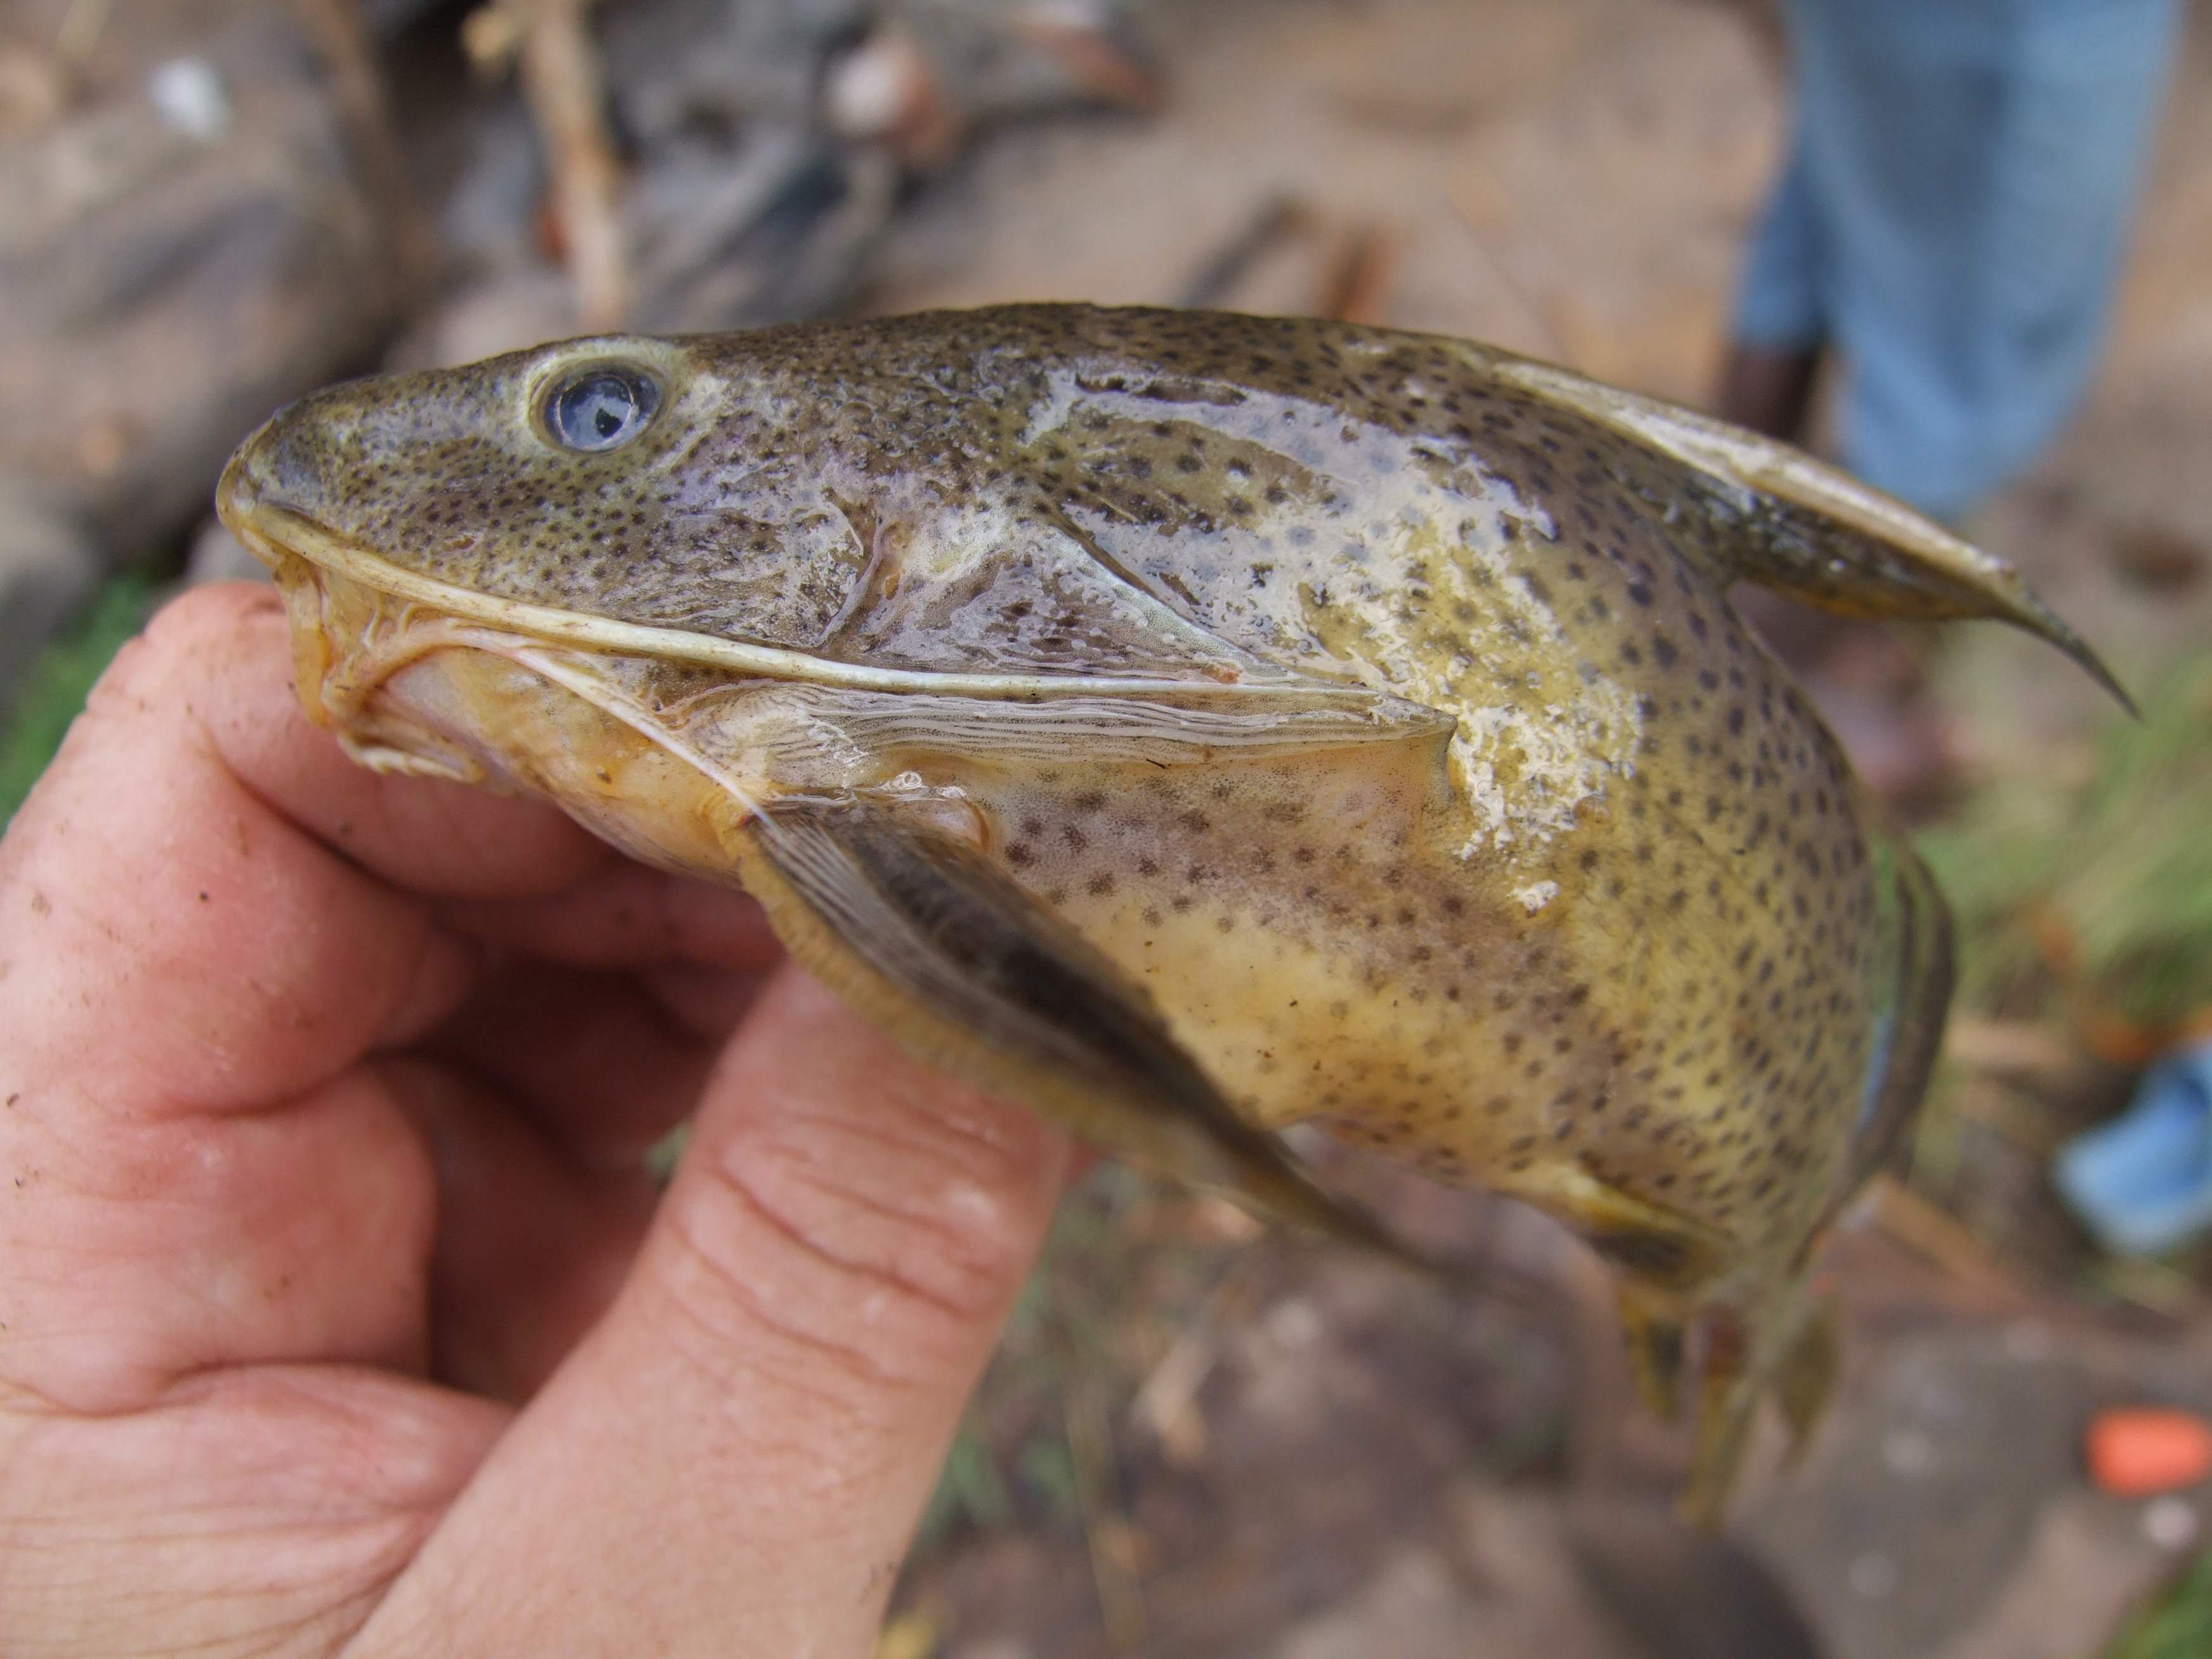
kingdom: Animalia
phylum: Chordata
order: Siluriformes
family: Mochokidae
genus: Synodontis
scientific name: Synodontis melanostictus
